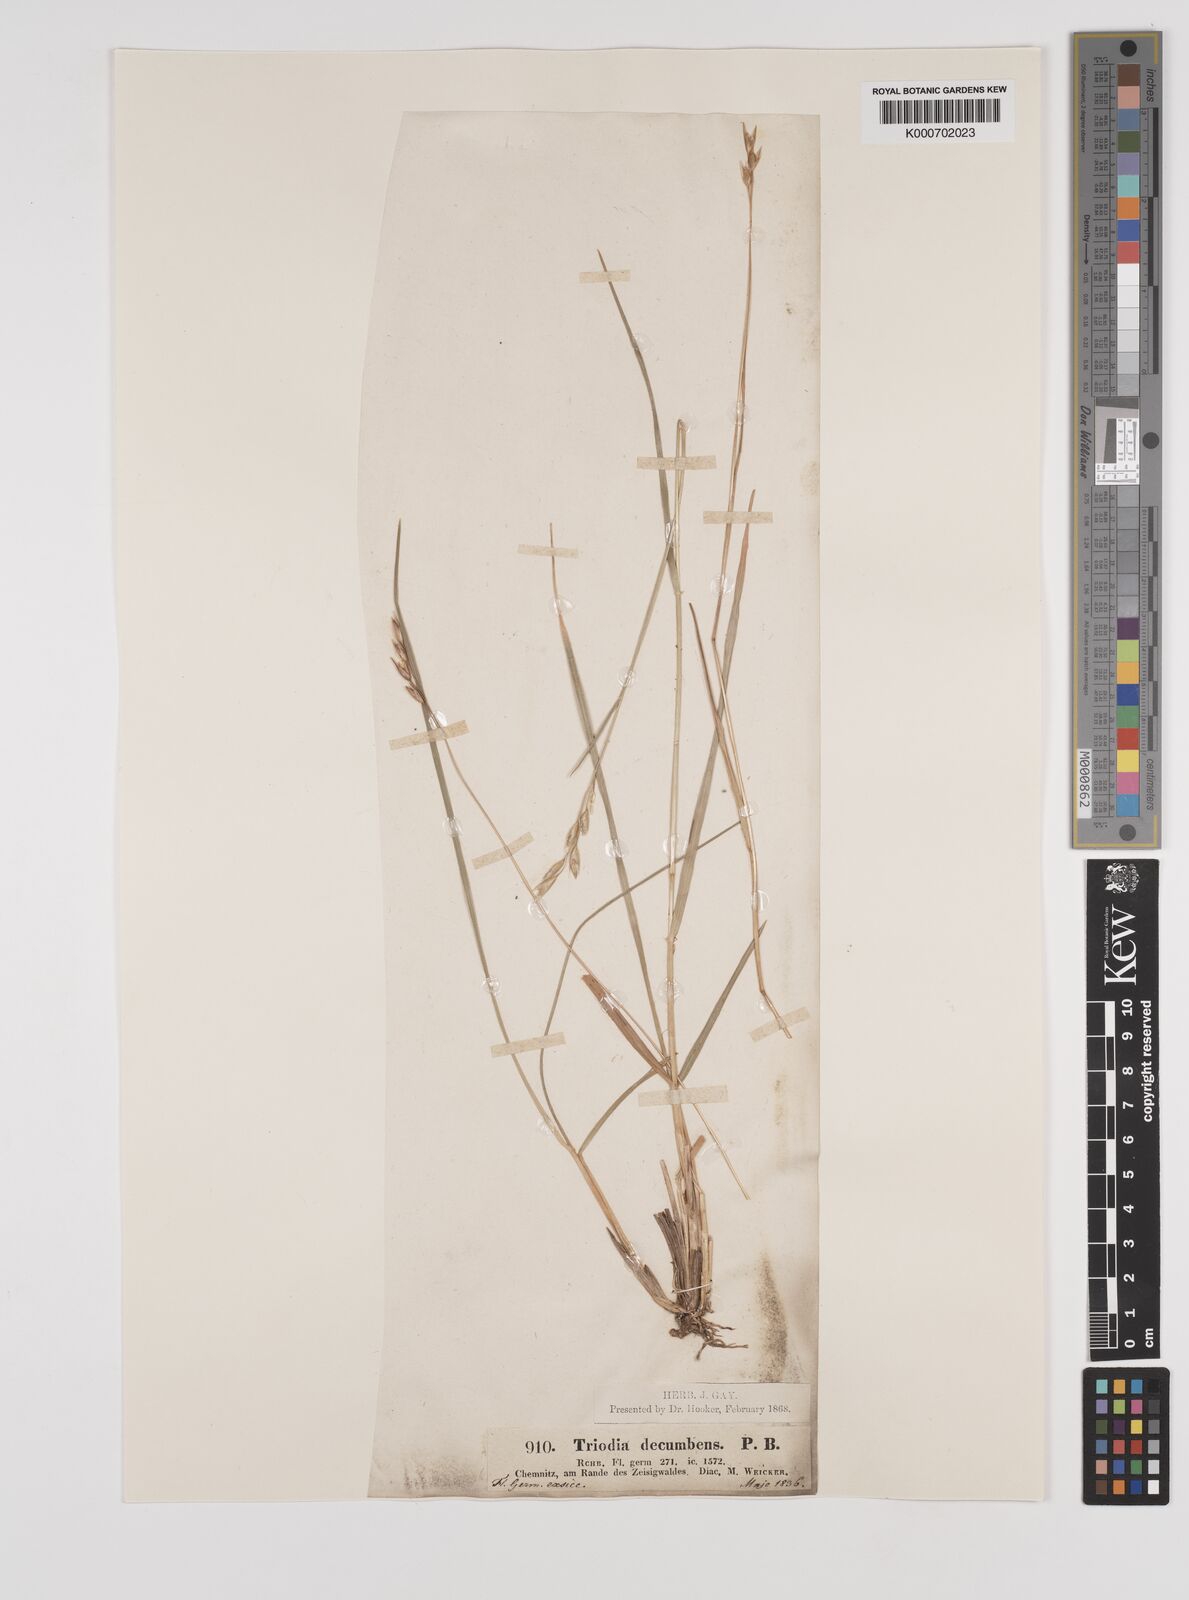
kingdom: Plantae
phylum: Tracheophyta
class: Liliopsida
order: Poales
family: Poaceae
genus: Danthonia
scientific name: Danthonia decumbens
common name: Common heathgrass
